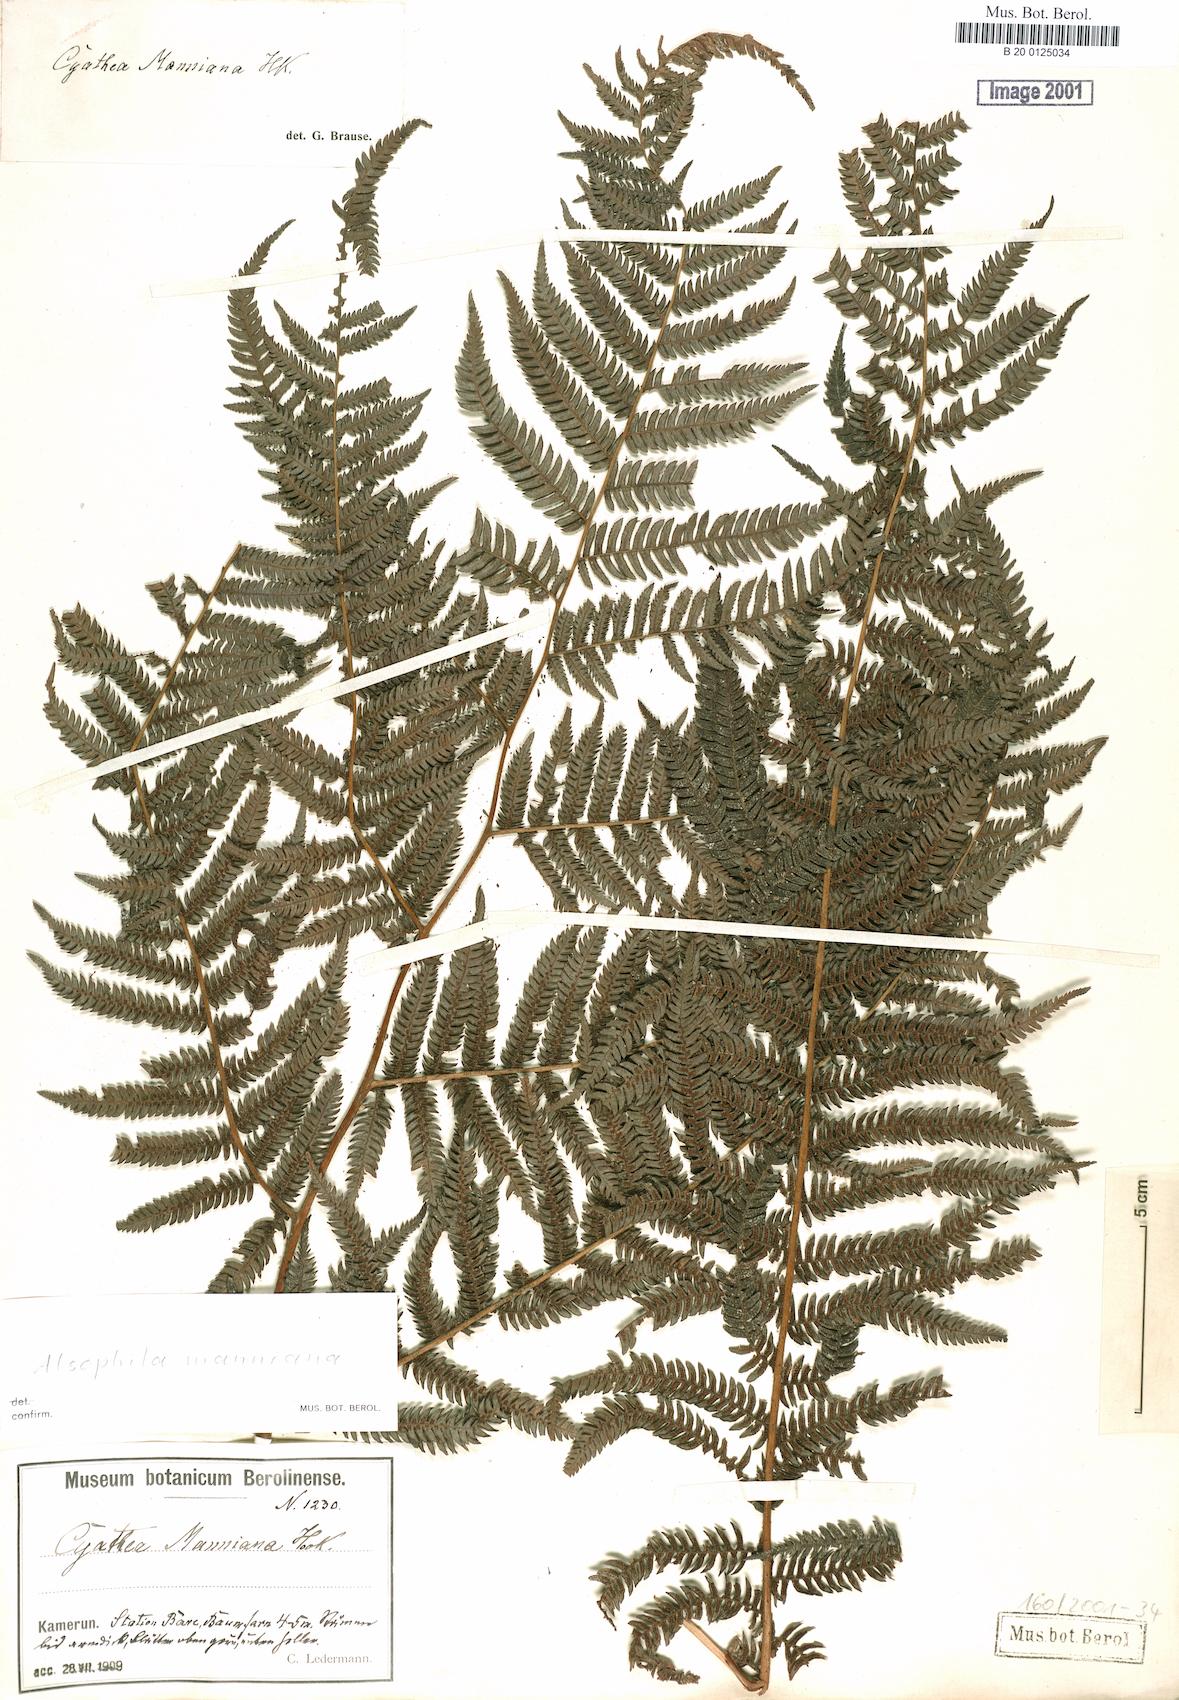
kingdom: Plantae
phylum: Tracheophyta
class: Polypodiopsida
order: Cyatheales
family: Cyatheaceae
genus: Alsophila
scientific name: Alsophila manniana
